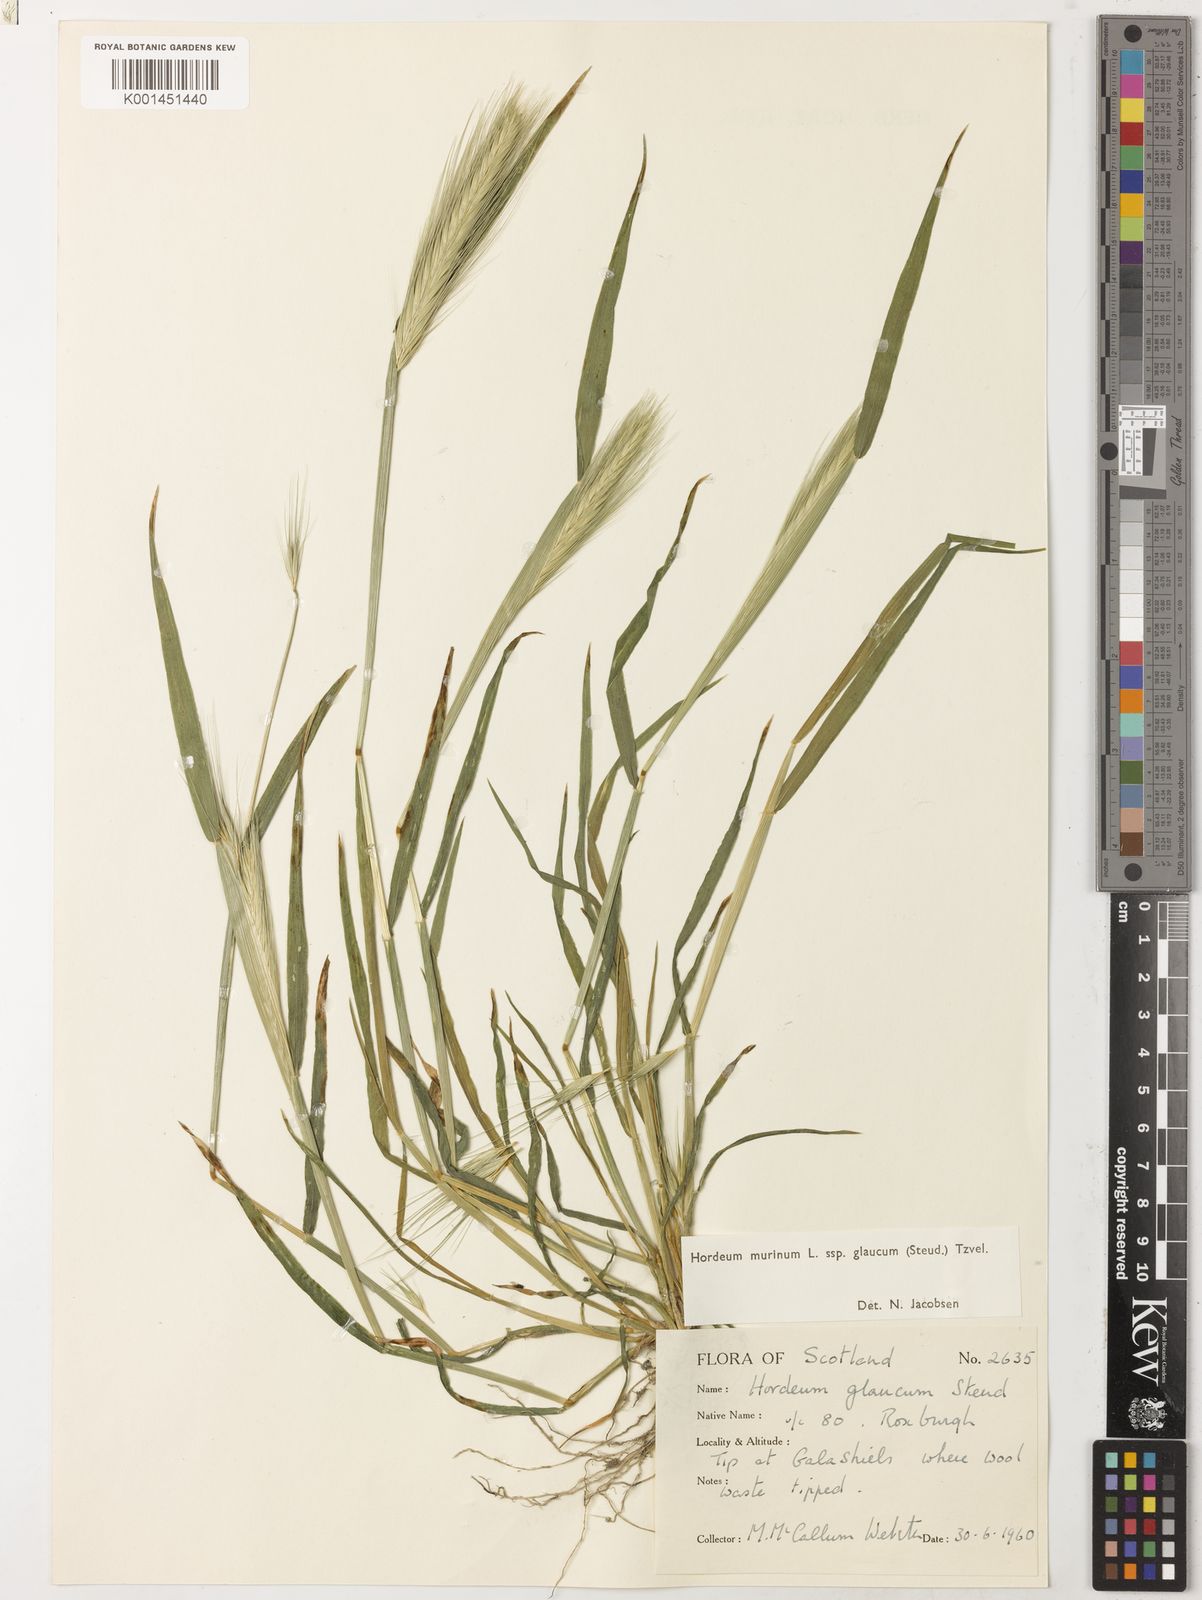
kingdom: Plantae
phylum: Tracheophyta
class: Liliopsida
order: Poales
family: Poaceae
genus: Hordeum
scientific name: Hordeum murinum
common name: Wall barley
